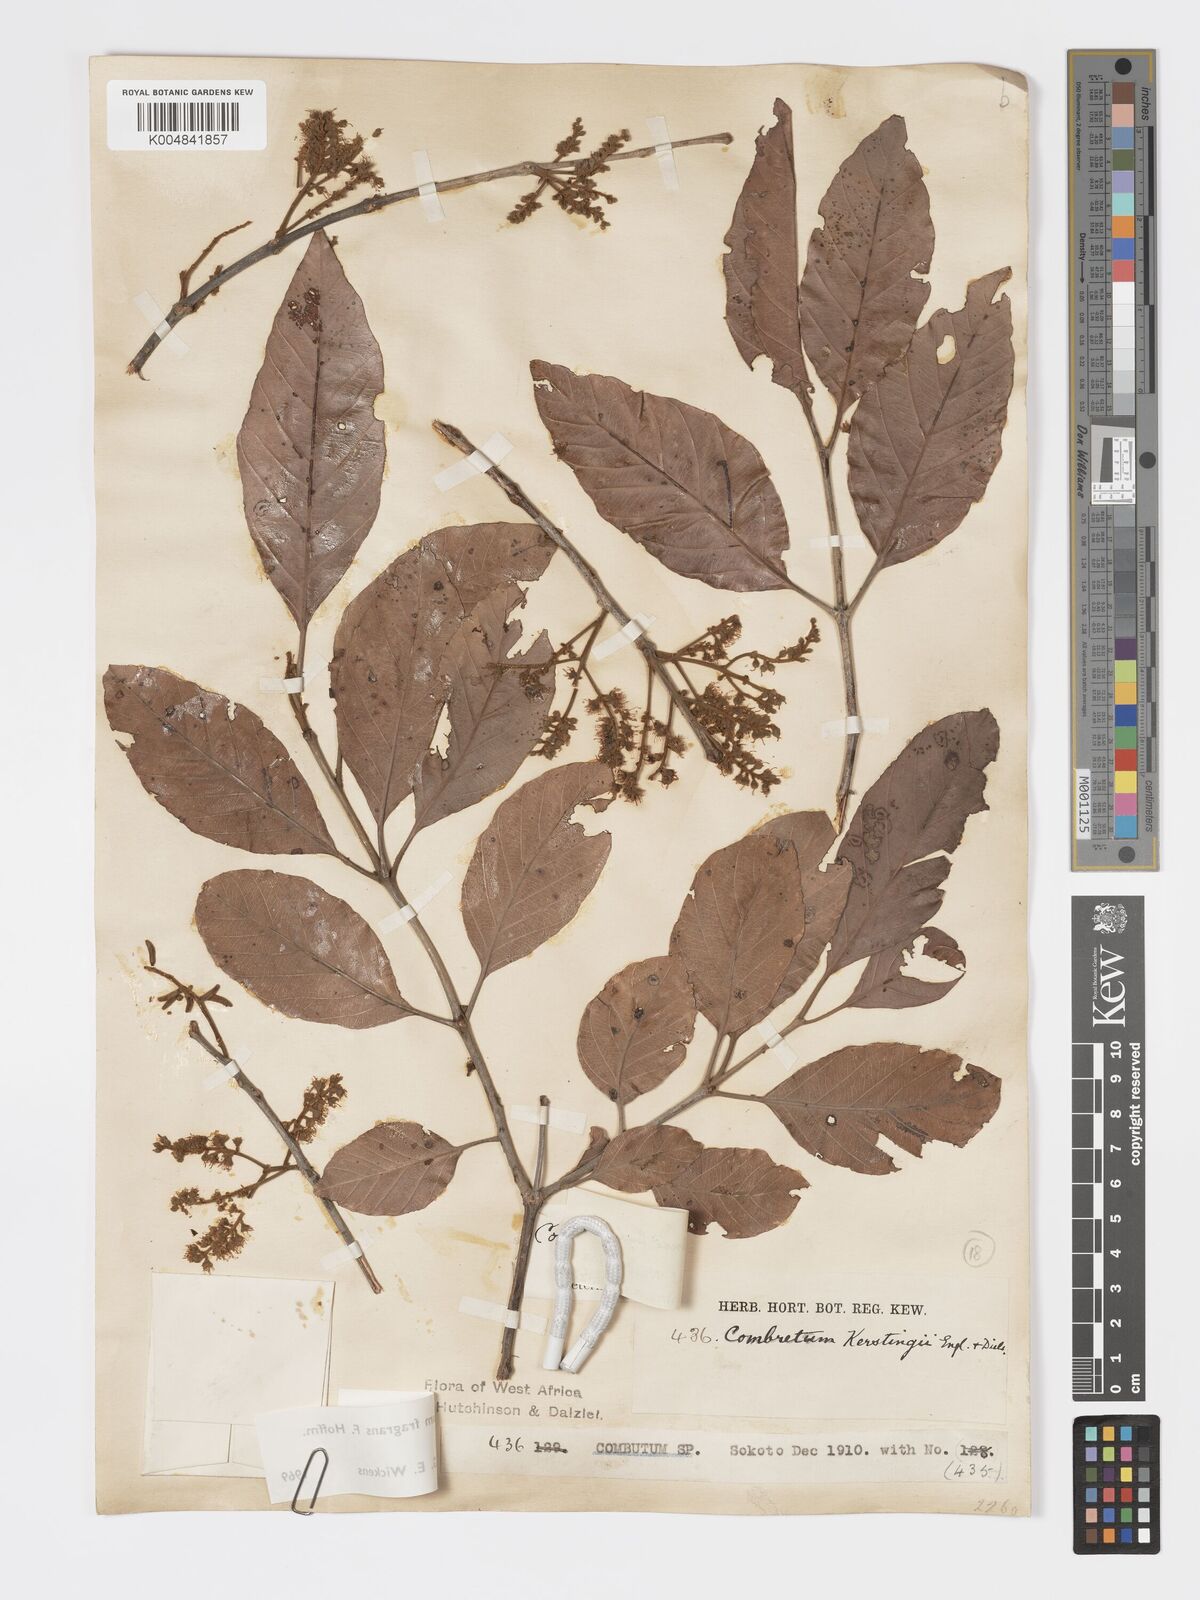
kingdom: Plantae
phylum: Tracheophyta
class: Magnoliopsida
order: Myrtales
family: Combretaceae
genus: Combretum
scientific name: Combretum adenogonium
